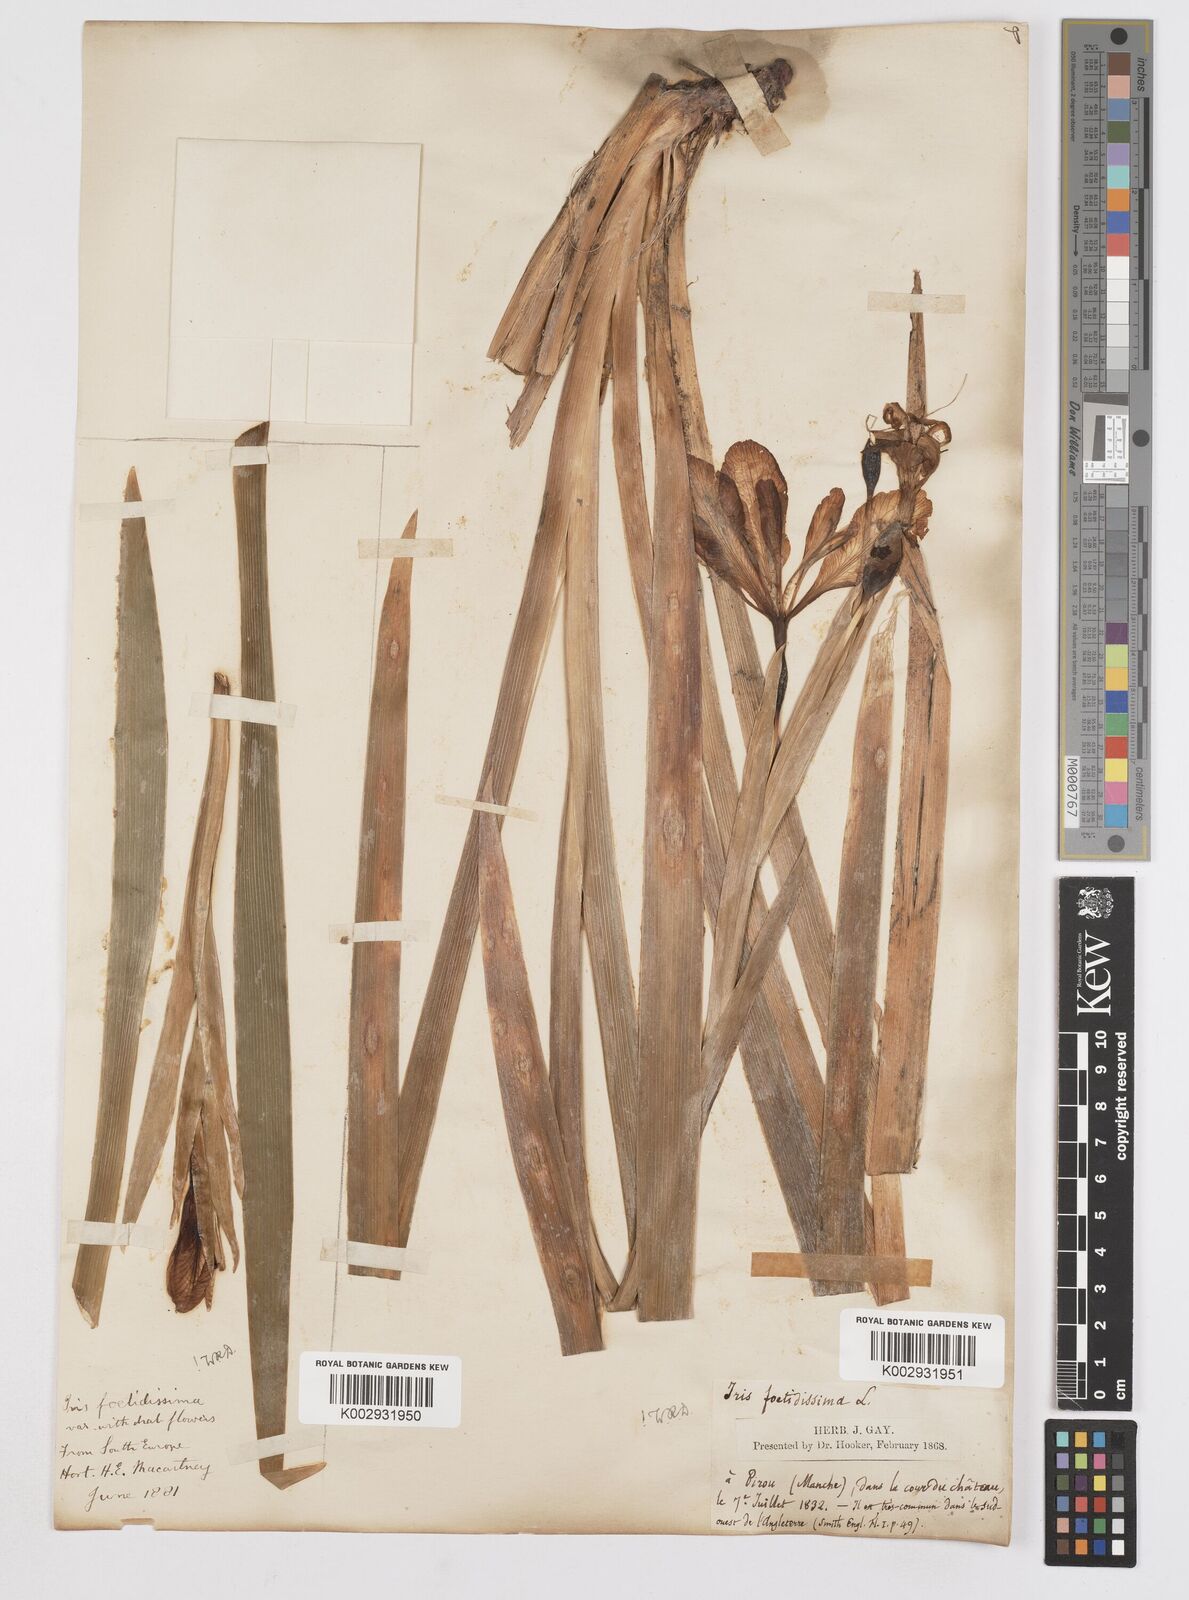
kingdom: Plantae
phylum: Tracheophyta
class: Liliopsida
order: Asparagales
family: Iridaceae
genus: Iris
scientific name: Iris foetidissima
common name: Stinking iris
